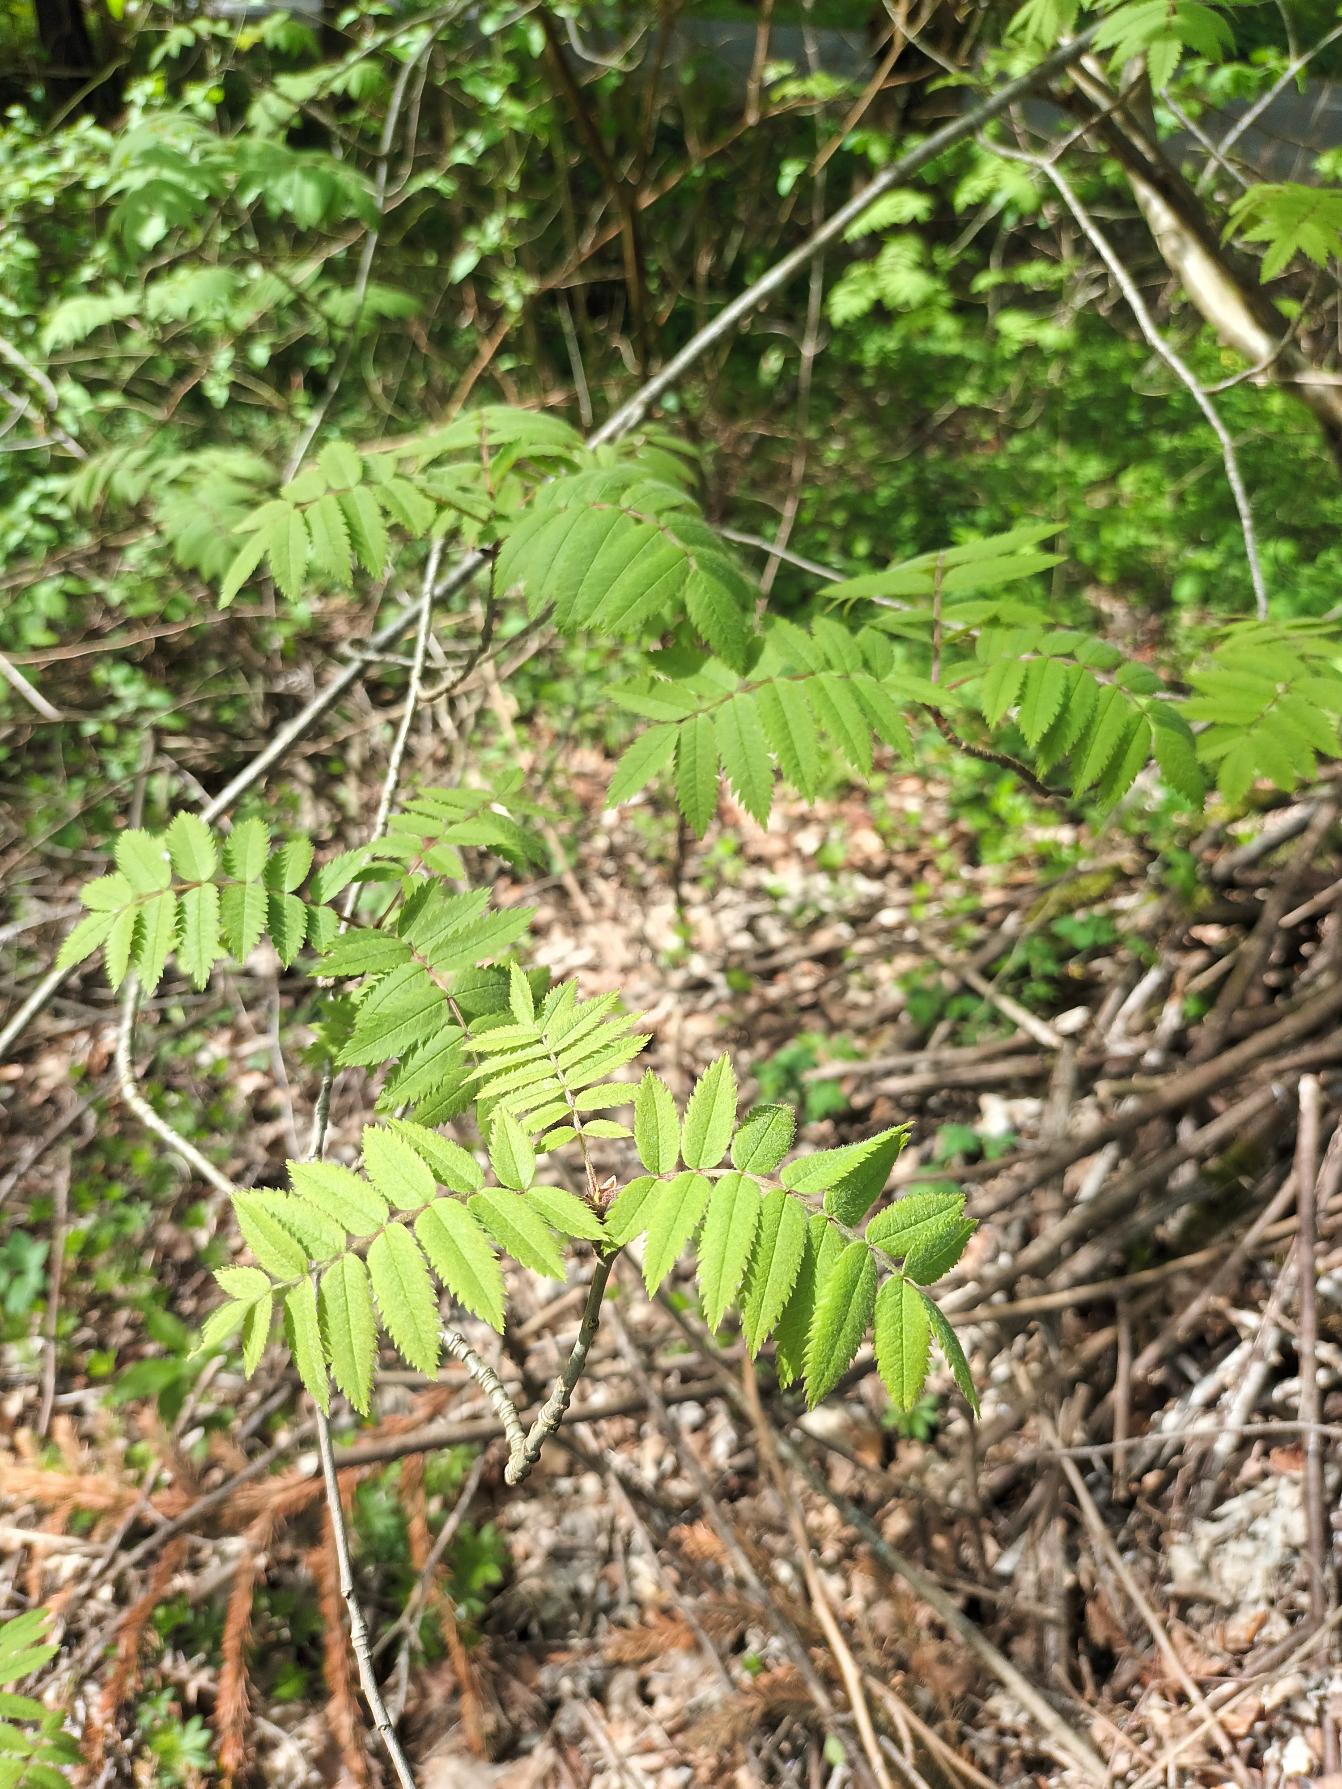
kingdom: Plantae
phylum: Tracheophyta
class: Magnoliopsida
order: Rosales
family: Rosaceae
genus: Sorbus
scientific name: Sorbus aucuparia
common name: Almindelig røn
